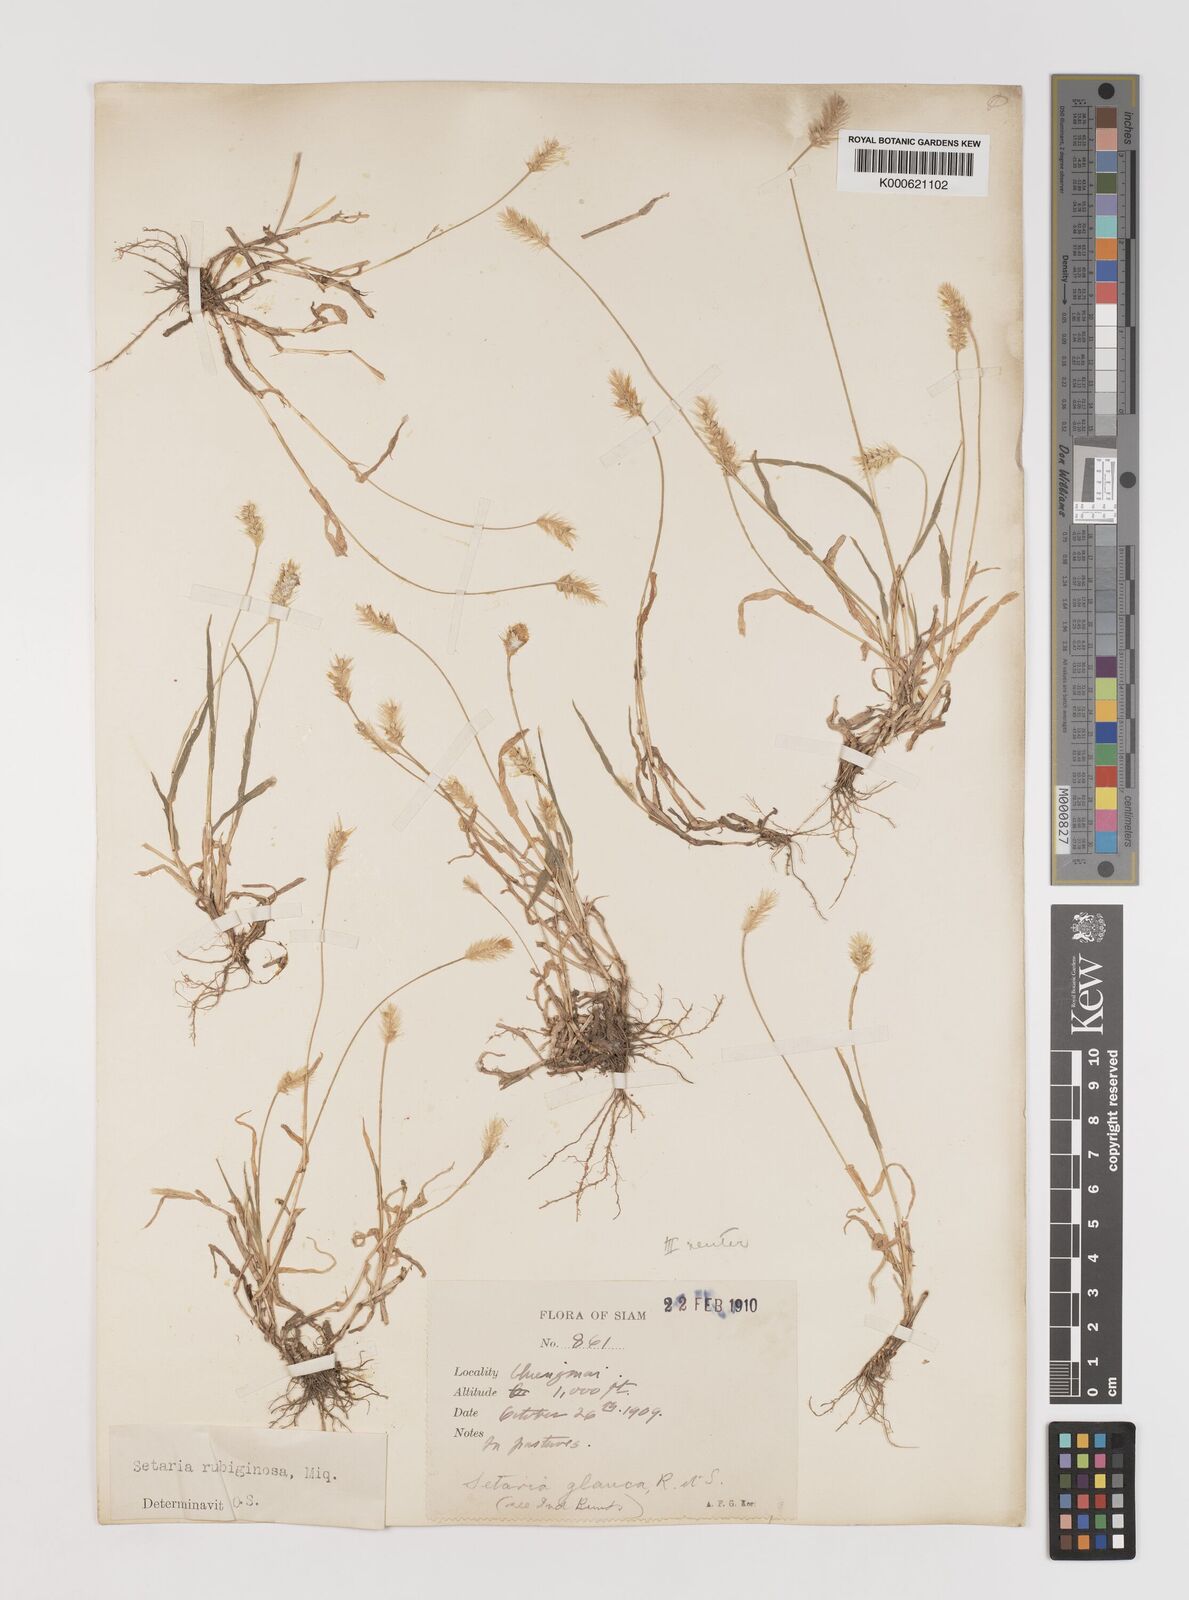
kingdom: Plantae
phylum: Tracheophyta
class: Liliopsida
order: Poales
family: Poaceae
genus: Setaria
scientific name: Setaria pumila
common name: Yellow bristle-grass
